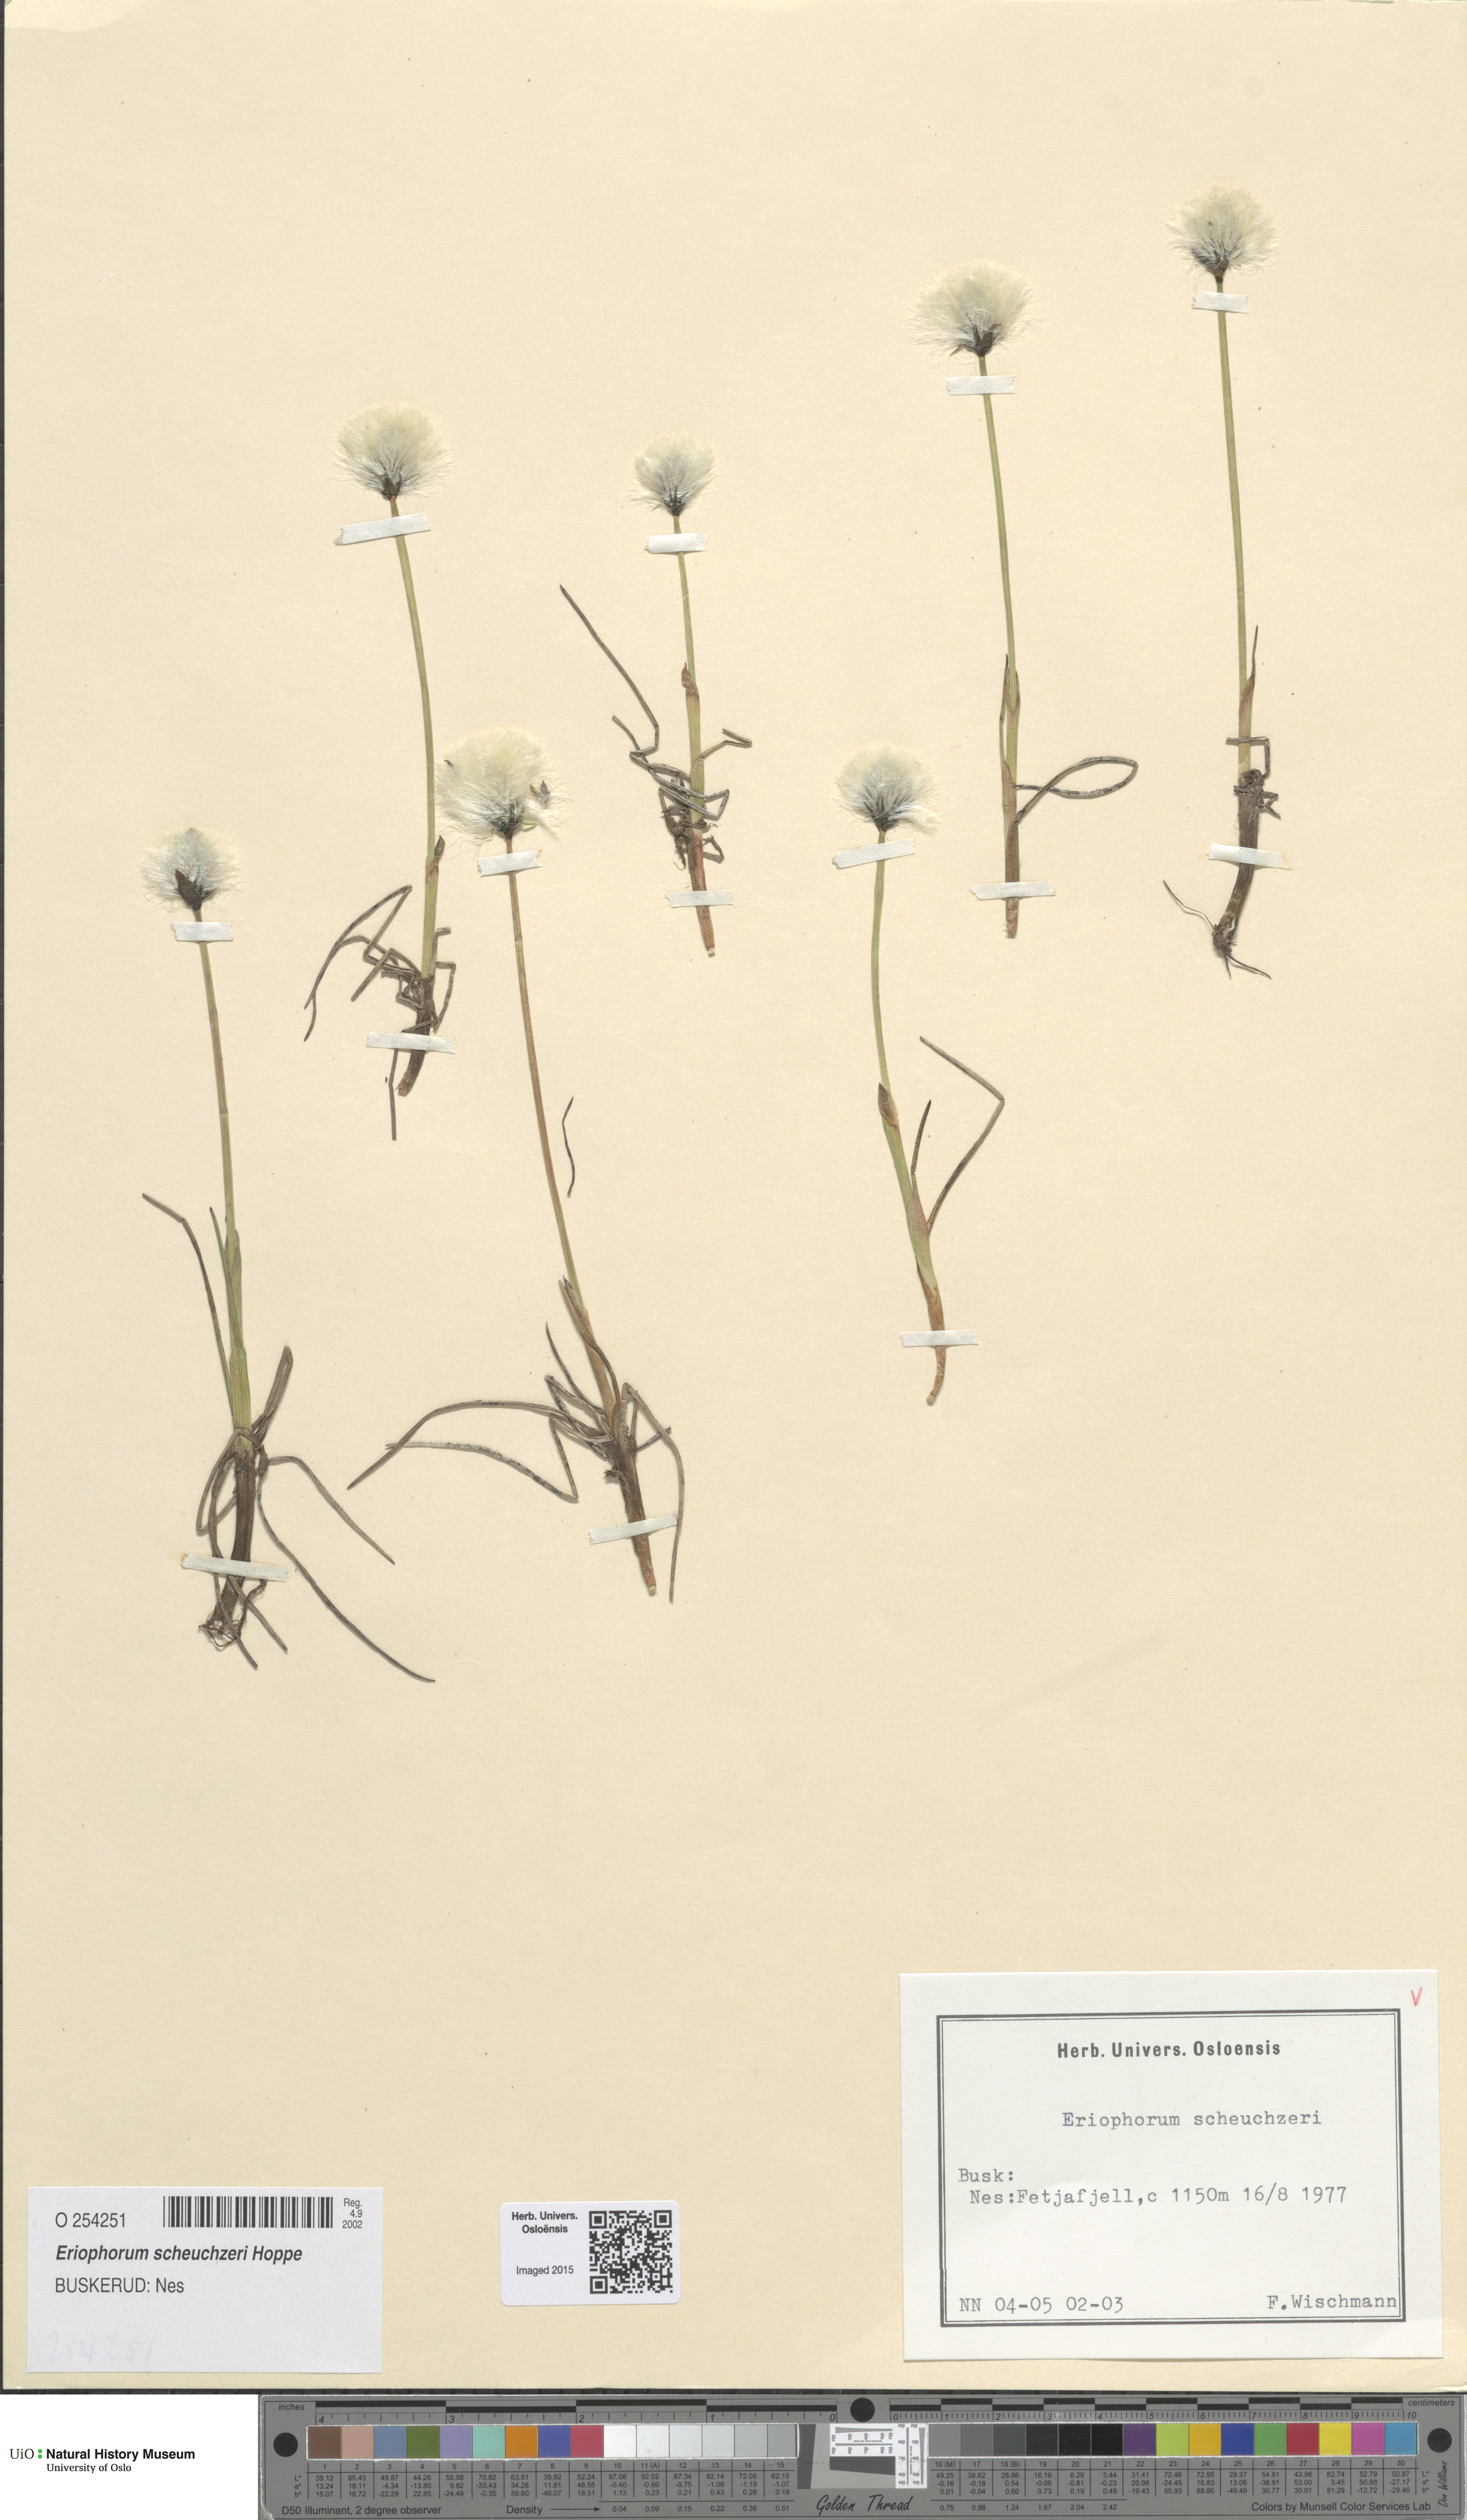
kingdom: Plantae
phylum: Tracheophyta
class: Liliopsida
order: Poales
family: Cyperaceae
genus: Eriophorum
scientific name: Eriophorum scheuchzeri
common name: Scheuchzer's cottongrass
